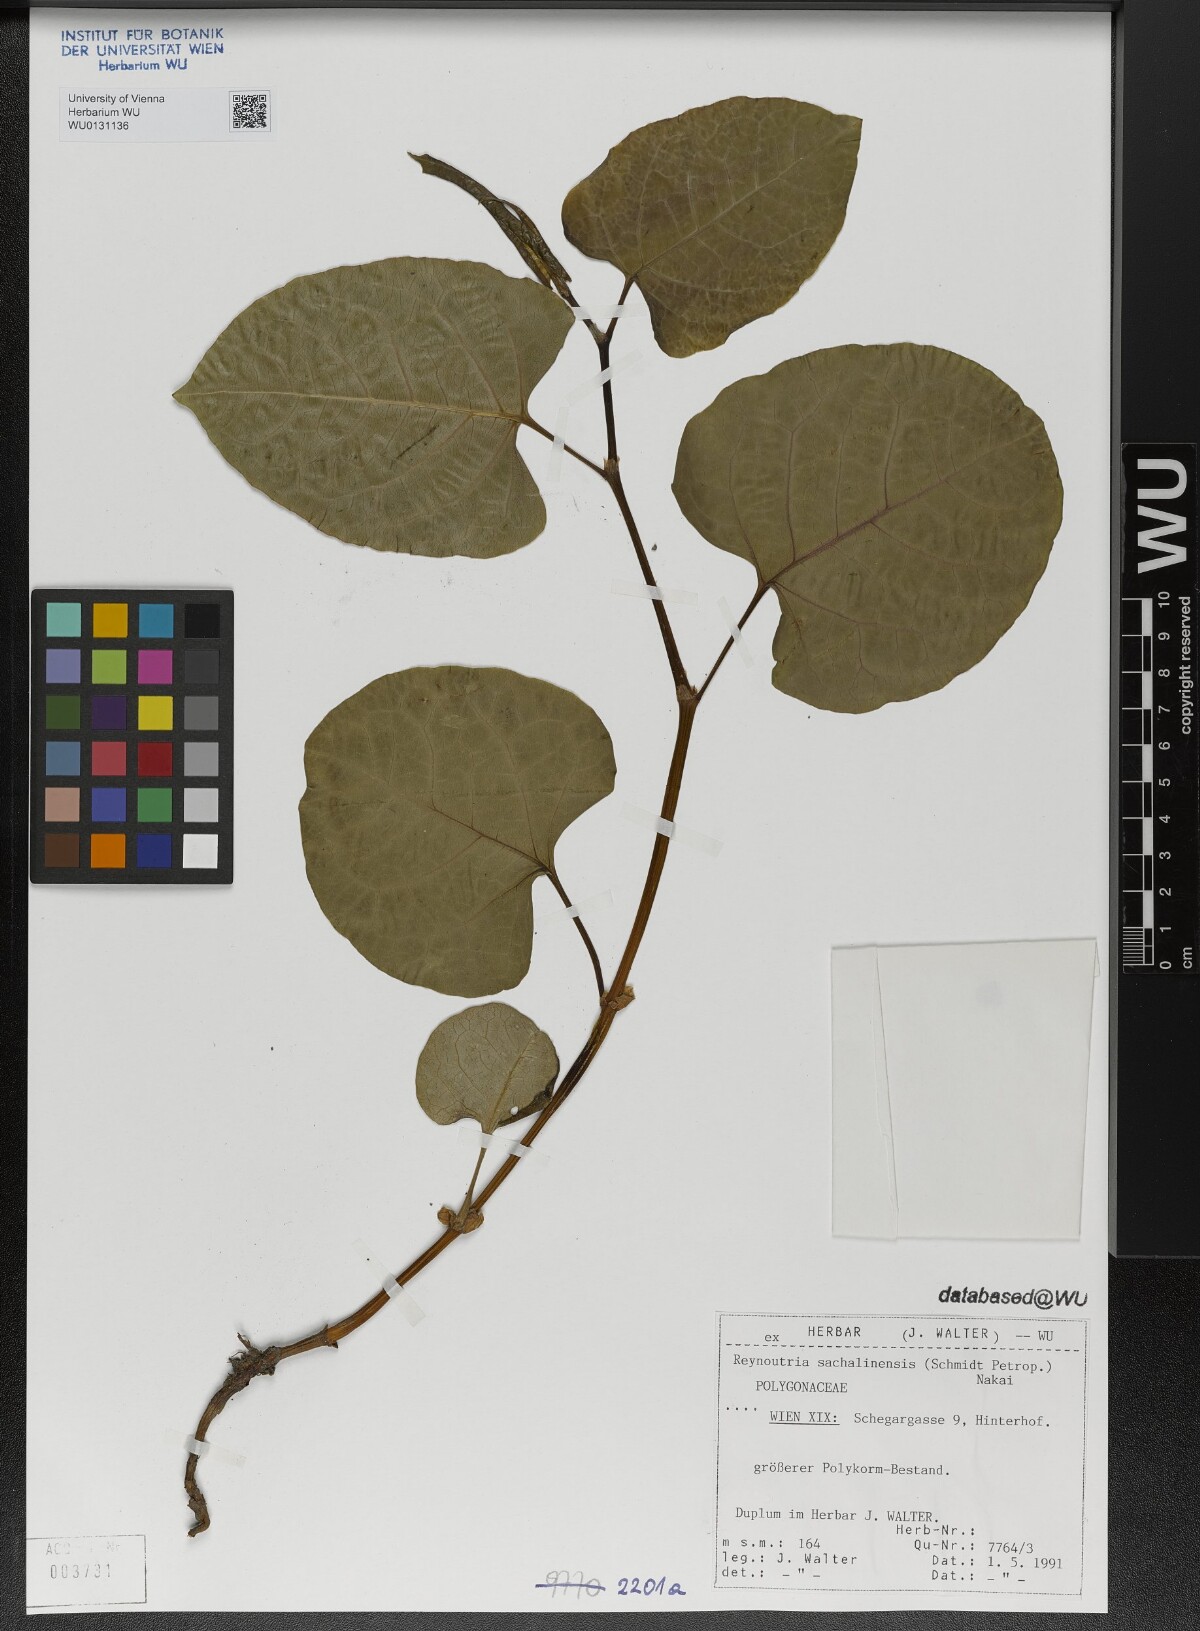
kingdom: Plantae
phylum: Tracheophyta
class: Magnoliopsida
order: Caryophyllales
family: Polygonaceae
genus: Reynoutria
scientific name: Reynoutria sachalinensis
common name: Giant knotweed
